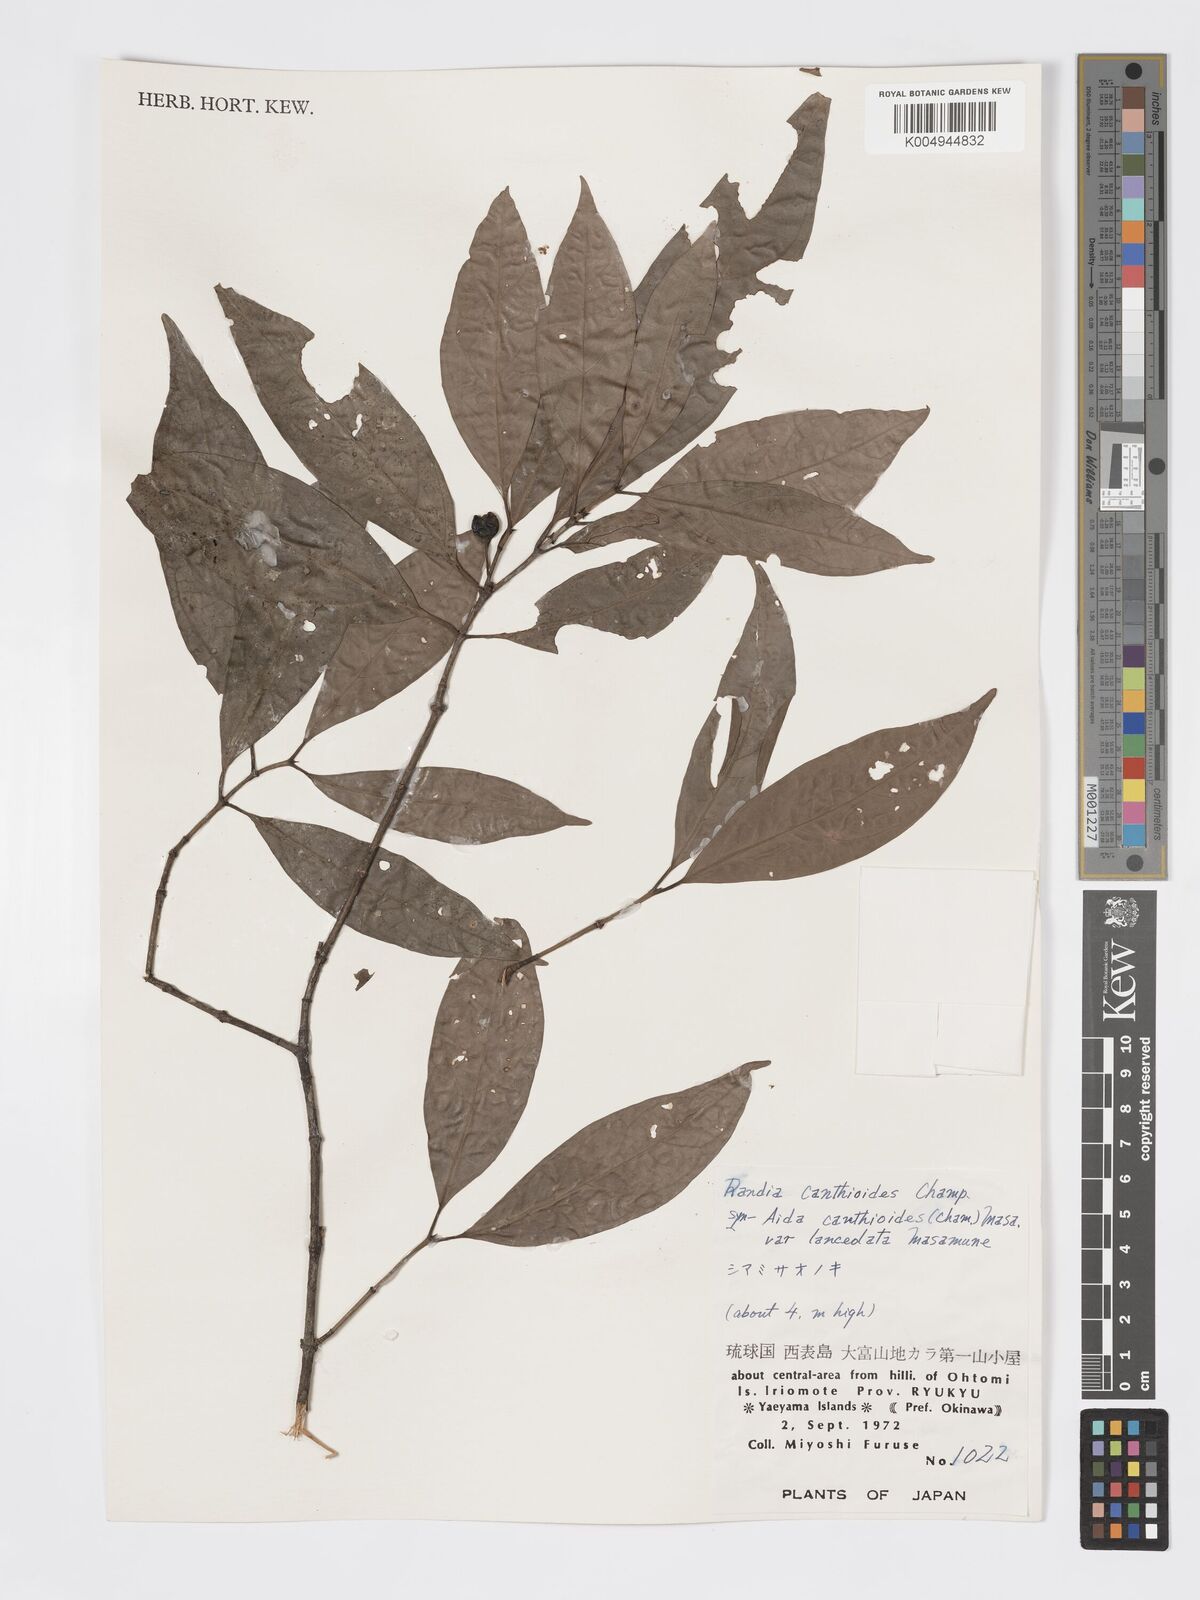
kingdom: Plantae
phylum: Tracheophyta
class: Magnoliopsida
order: Gentianales
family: Rubiaceae
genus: Aidia
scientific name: Aidia canthioides
